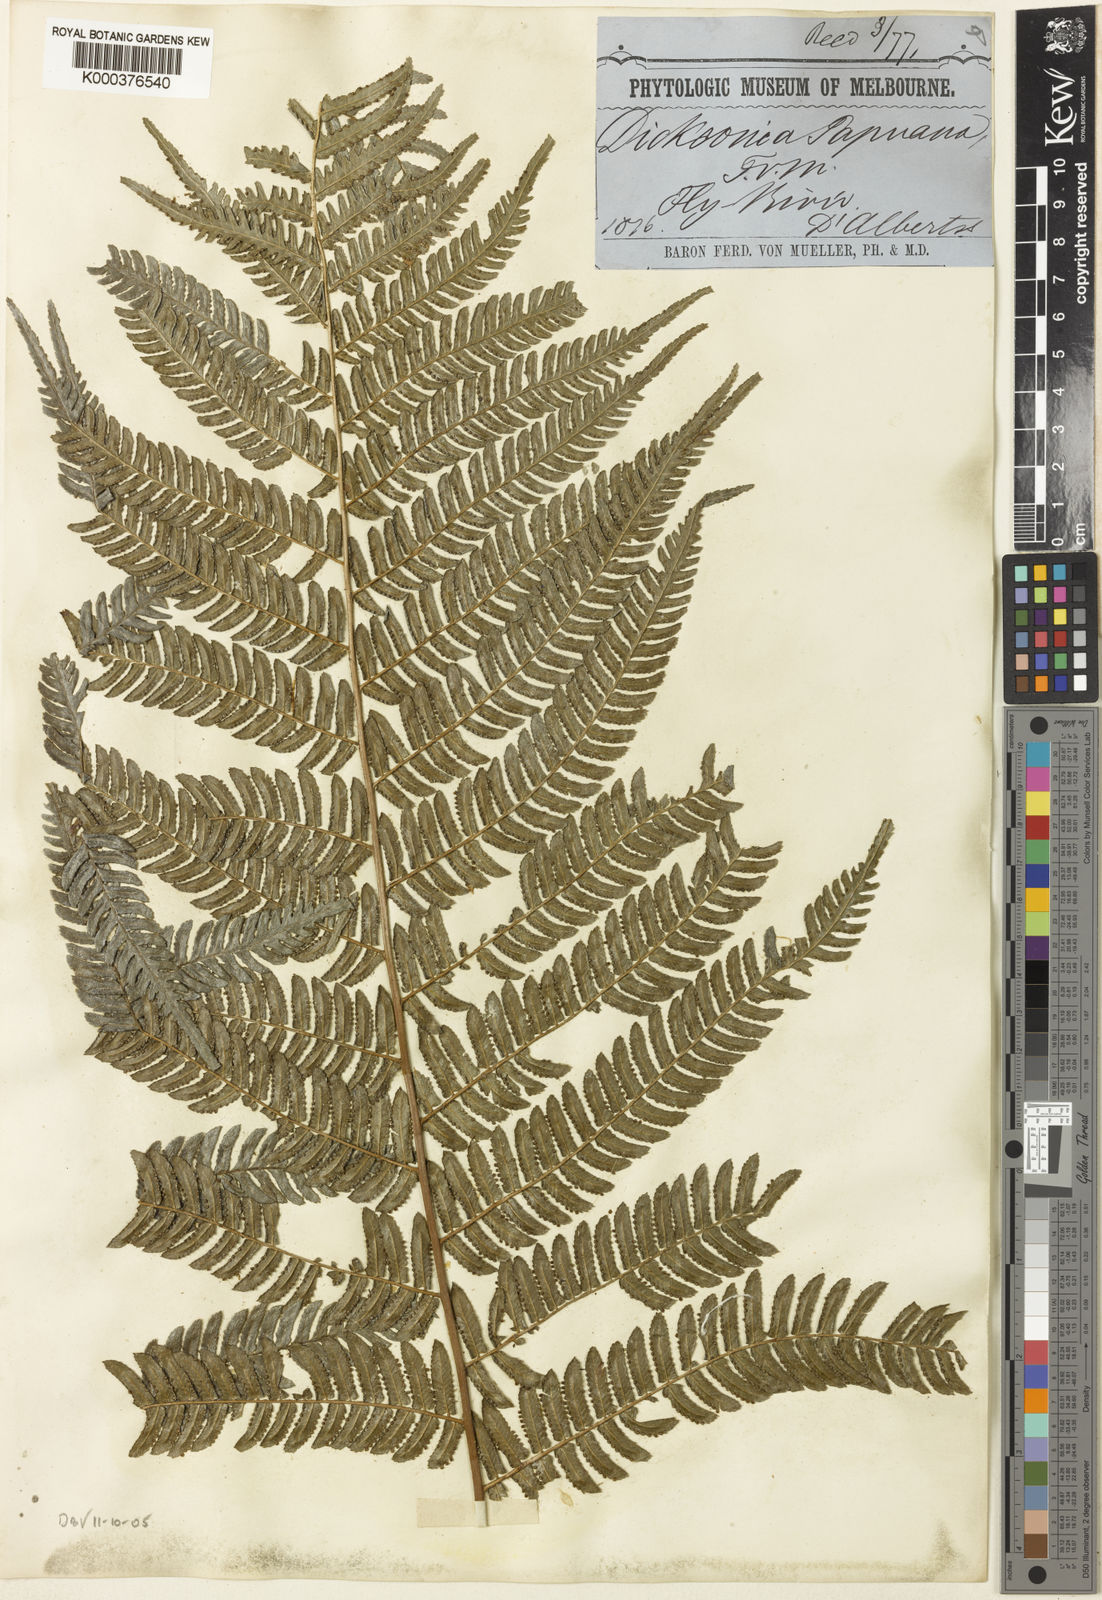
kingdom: Plantae
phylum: Tracheophyta
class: Polypodiopsida
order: Polypodiales
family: Cystodiaceae
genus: Cystodium
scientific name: Cystodium sorbifolium
